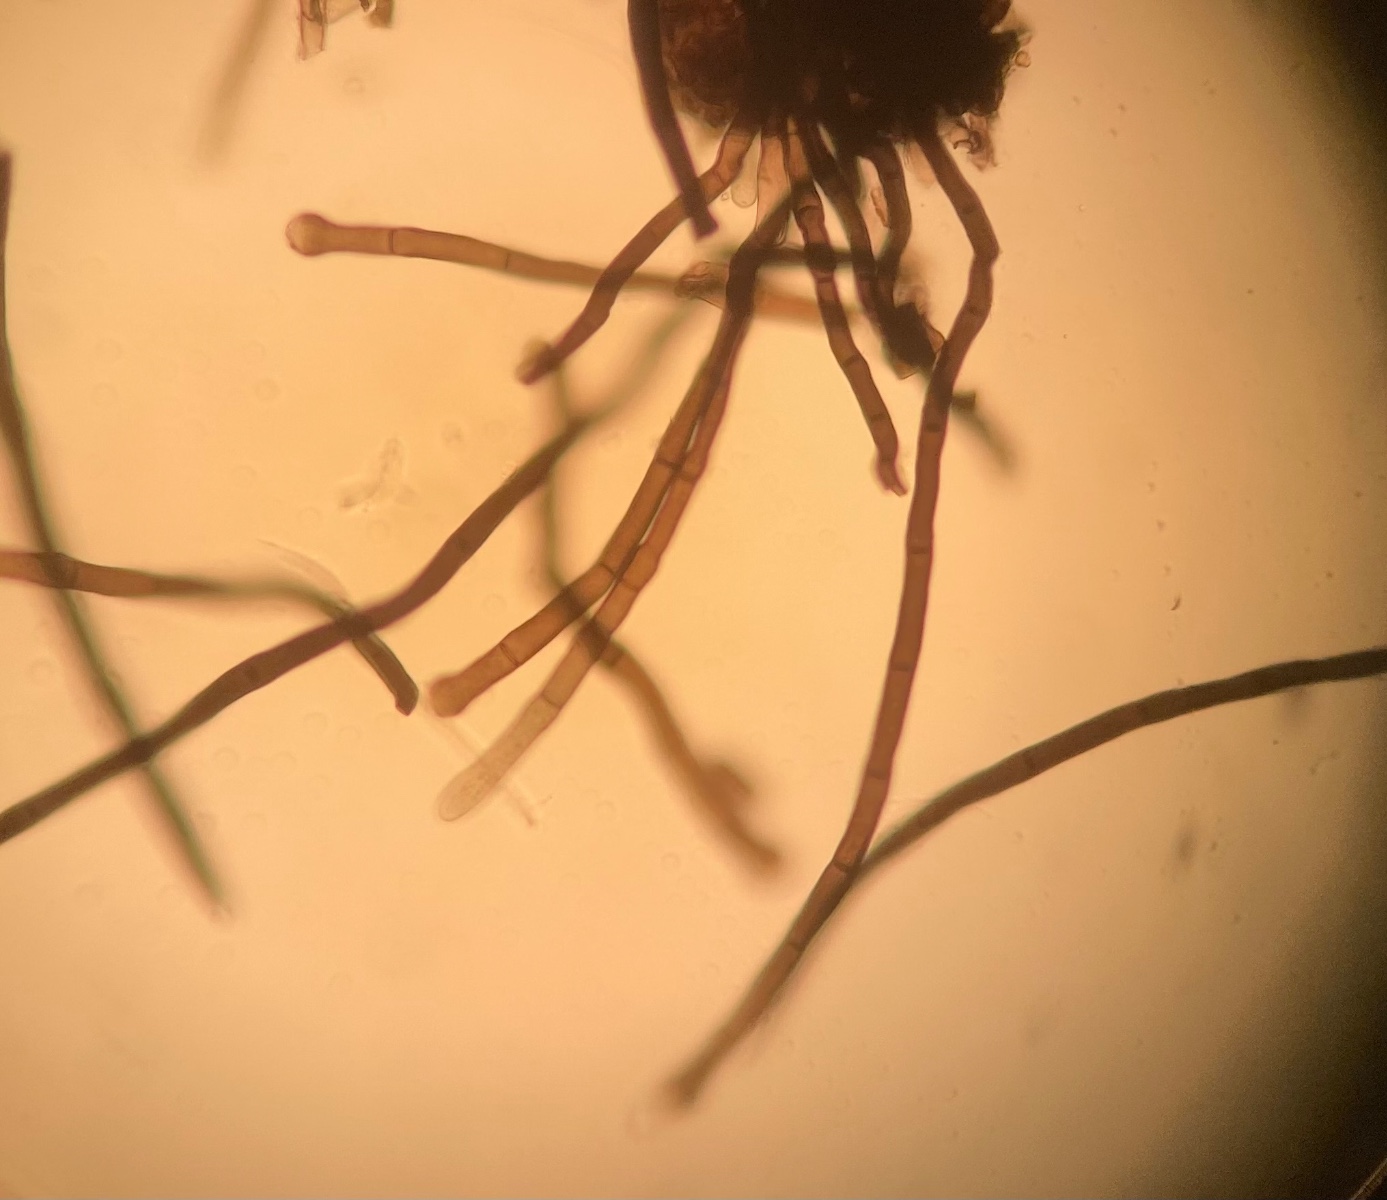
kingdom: Fungi
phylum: Ascomycota
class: Sordariomycetes
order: Coronophorales
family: Chaetosphaerellaceae
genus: Chaetosphaerella
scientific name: Chaetosphaerella phaeostroma
